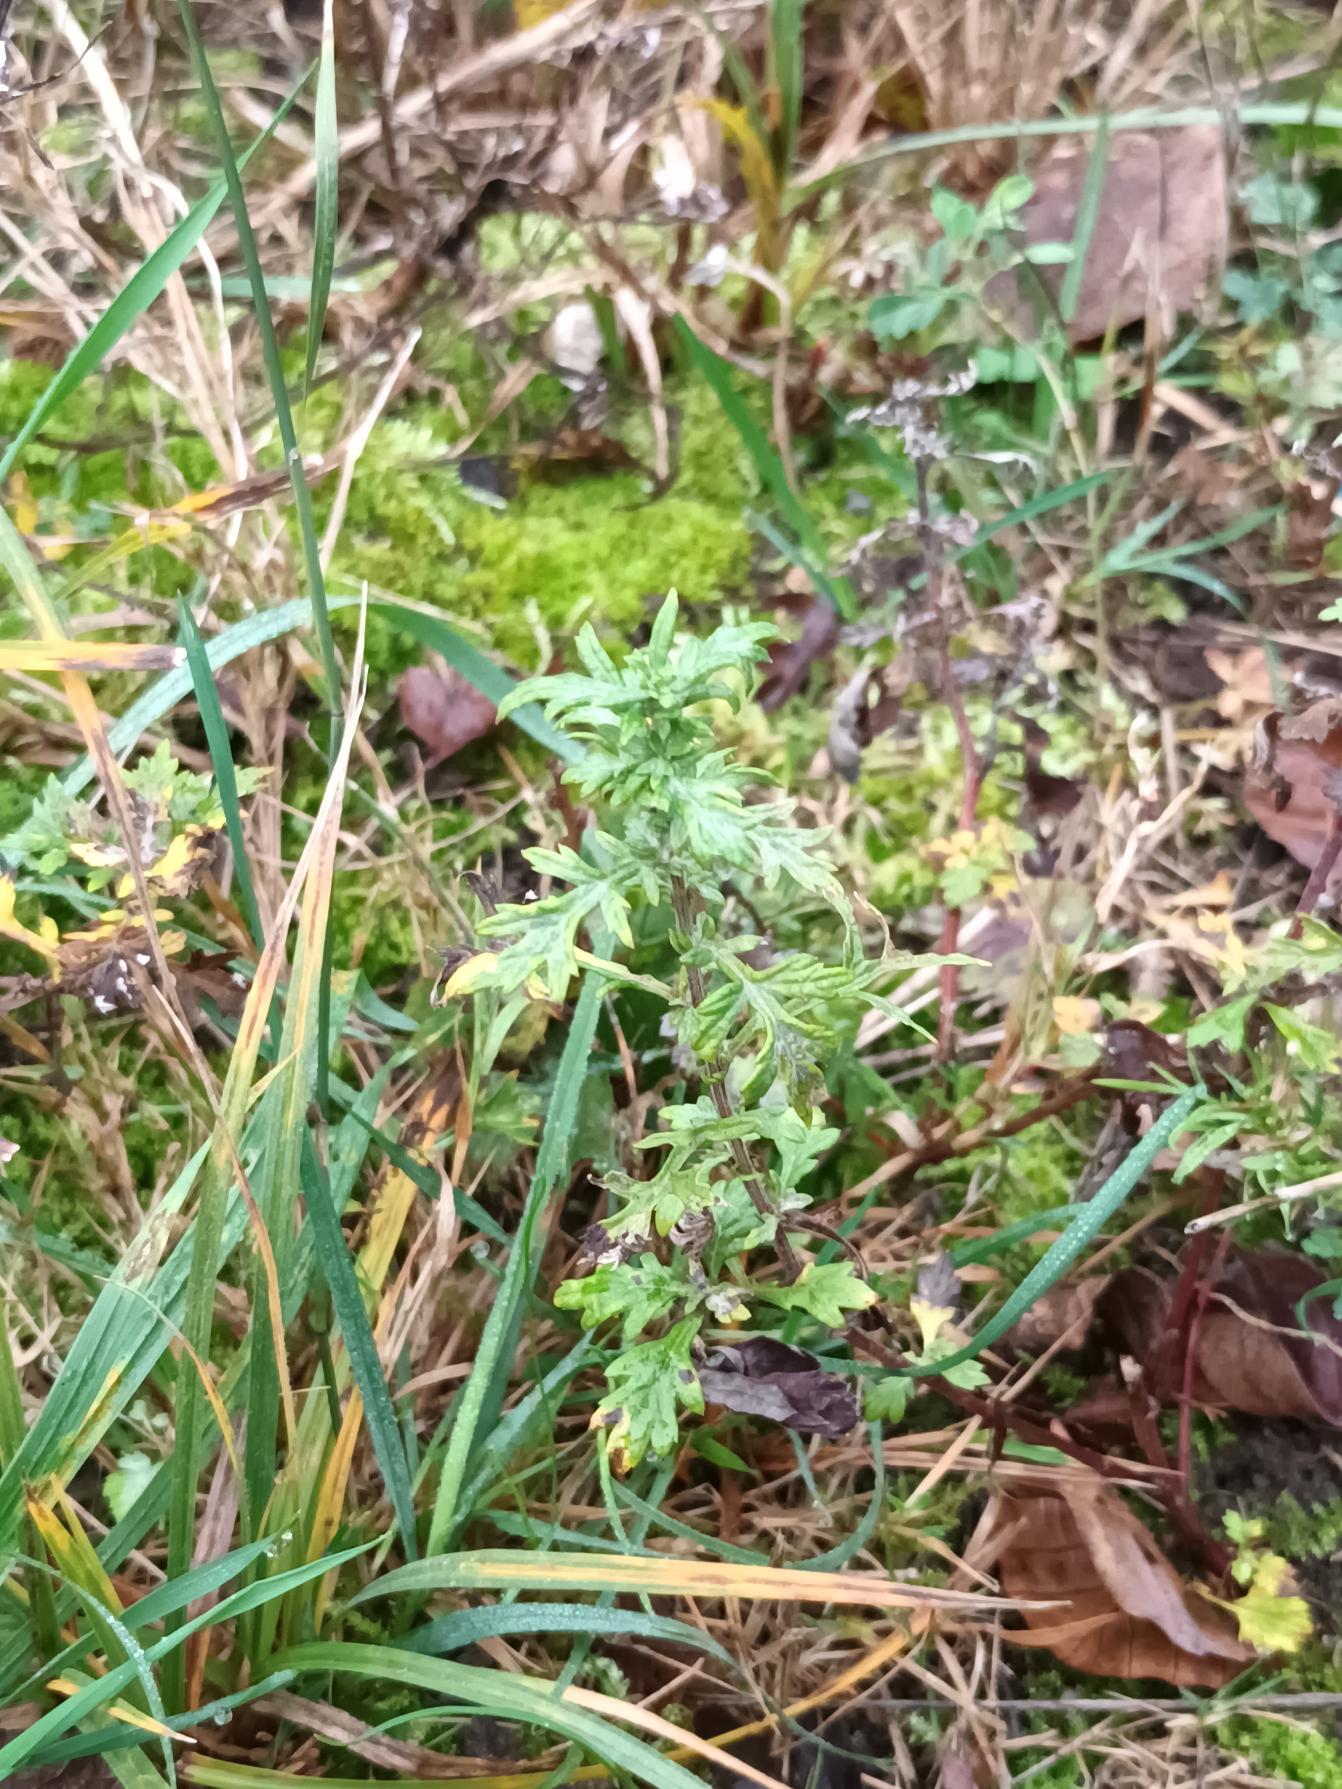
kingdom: Plantae
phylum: Tracheophyta
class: Magnoliopsida
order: Asterales
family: Asteraceae
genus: Artemisia
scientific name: Artemisia vulgaris
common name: Grå-bynke
